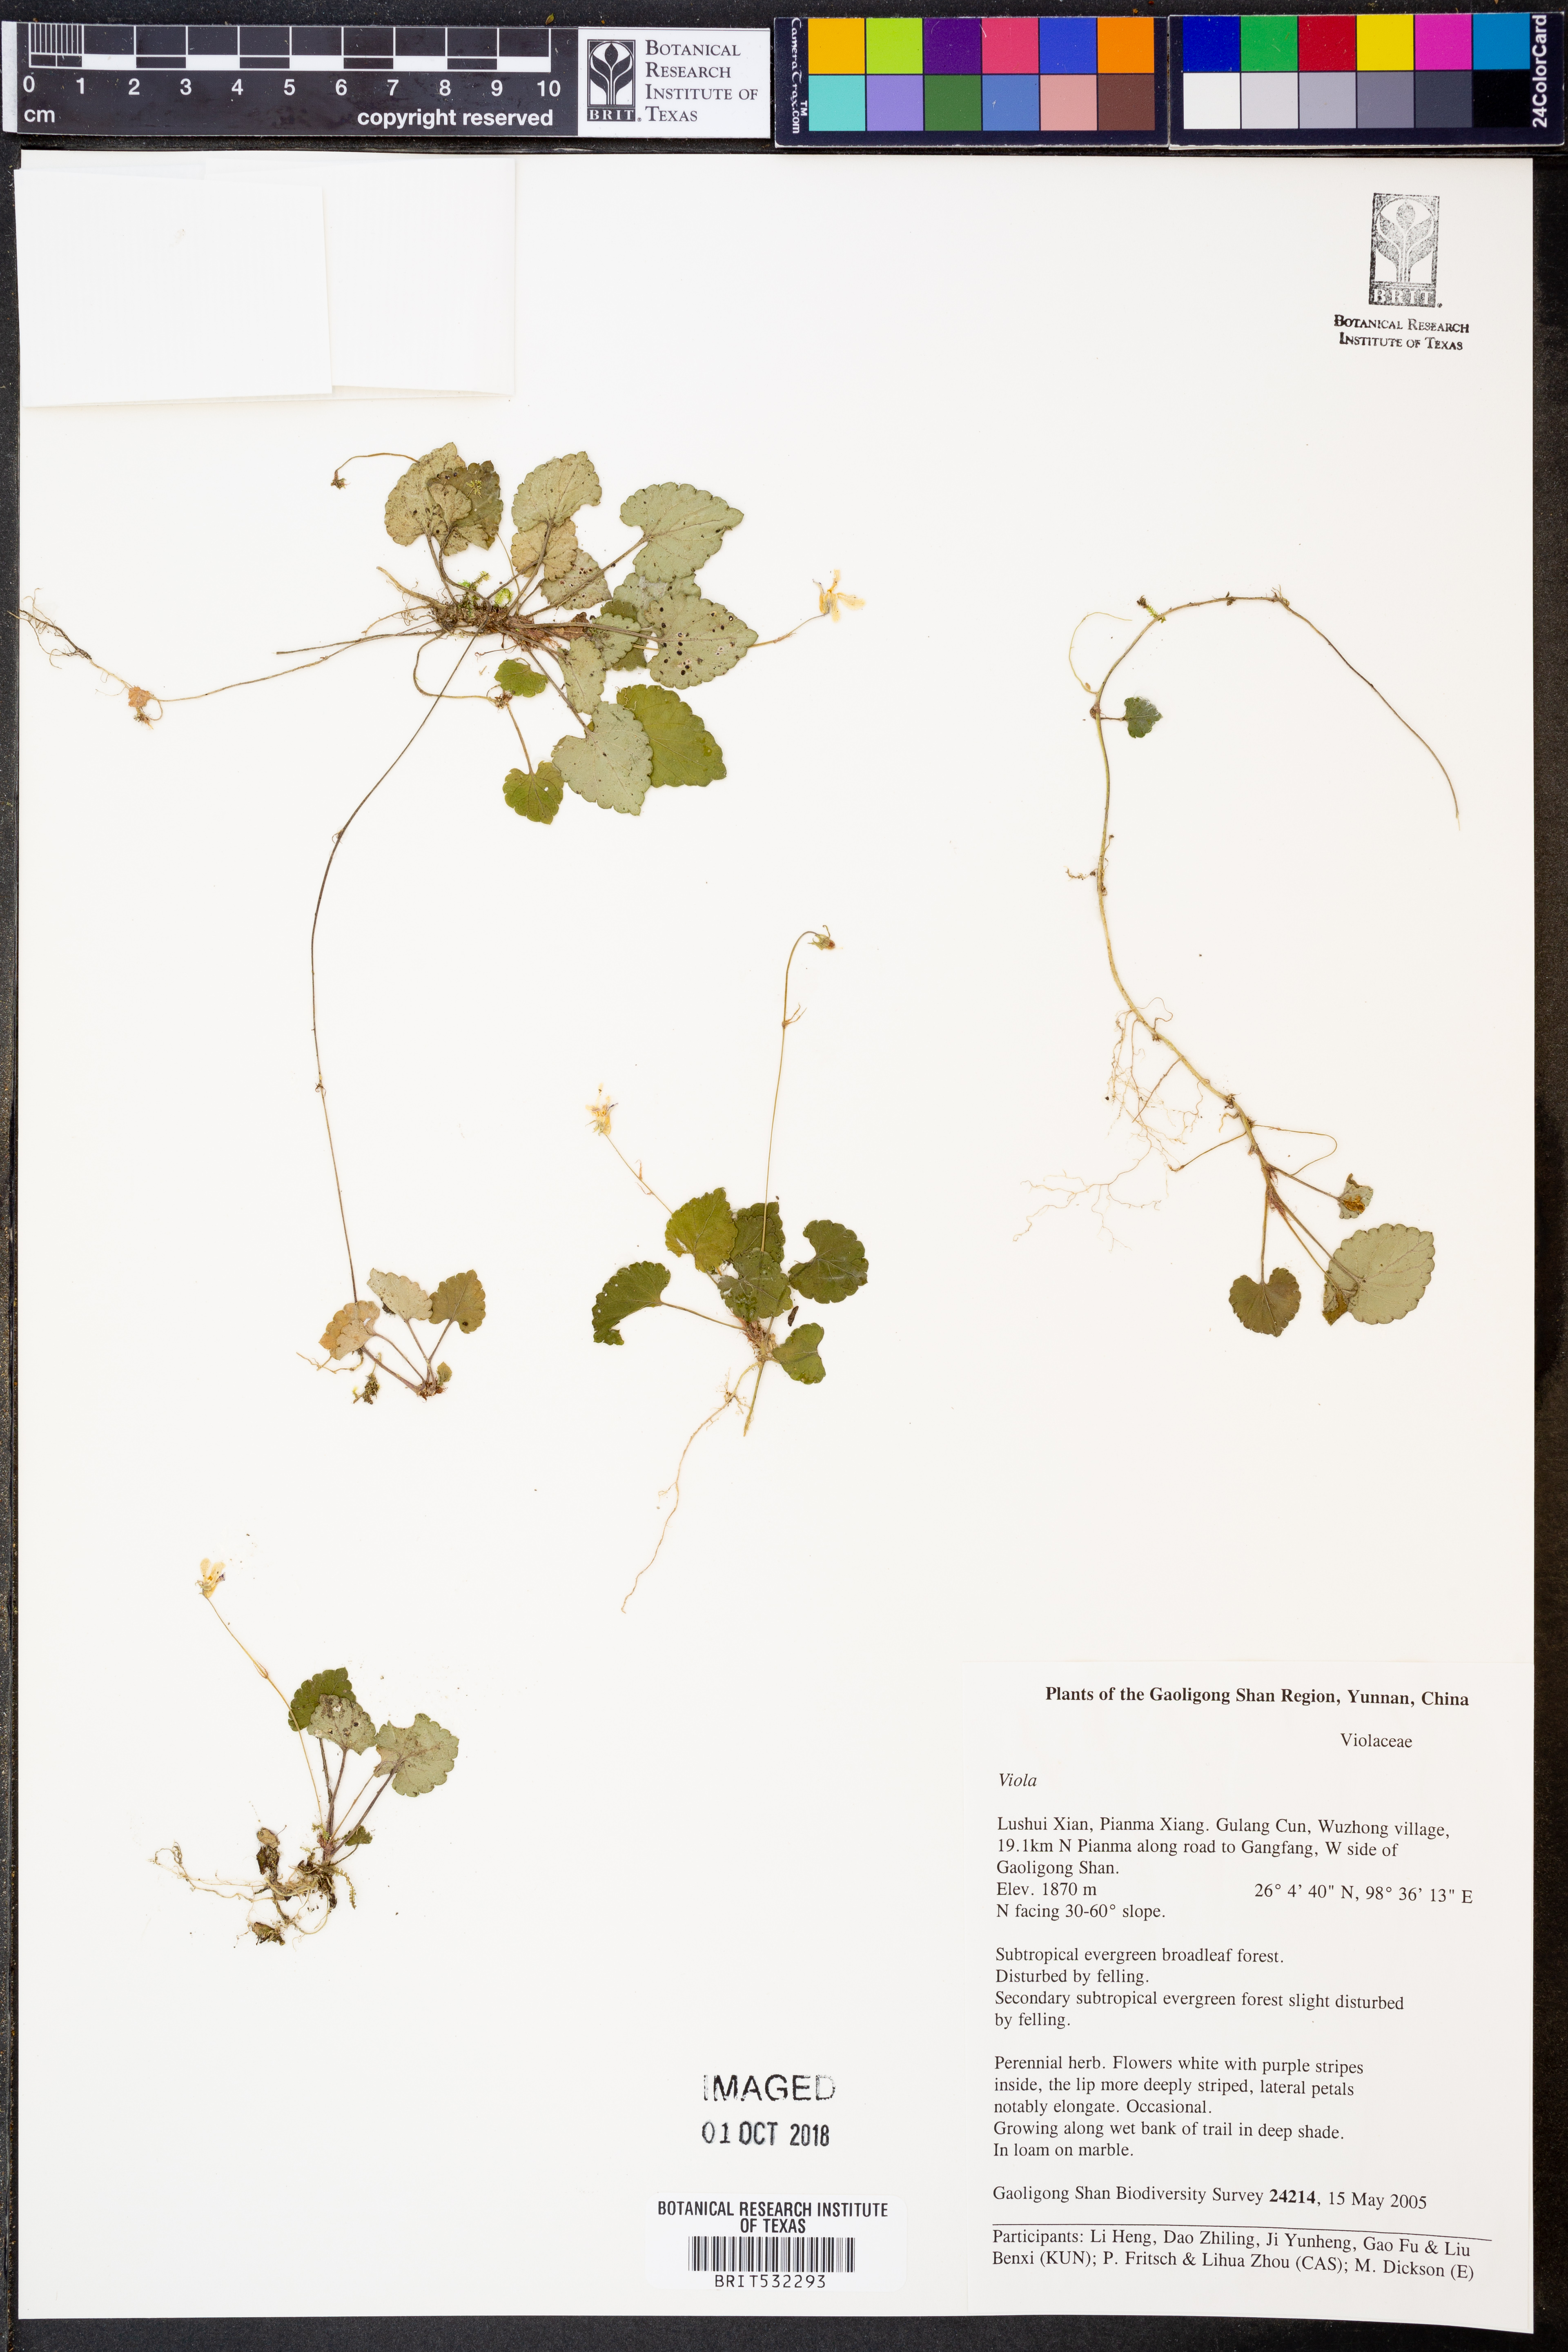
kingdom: Plantae
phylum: Tracheophyta
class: Magnoliopsida
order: Malpighiales
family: Violaceae
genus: Viola
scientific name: Viola
